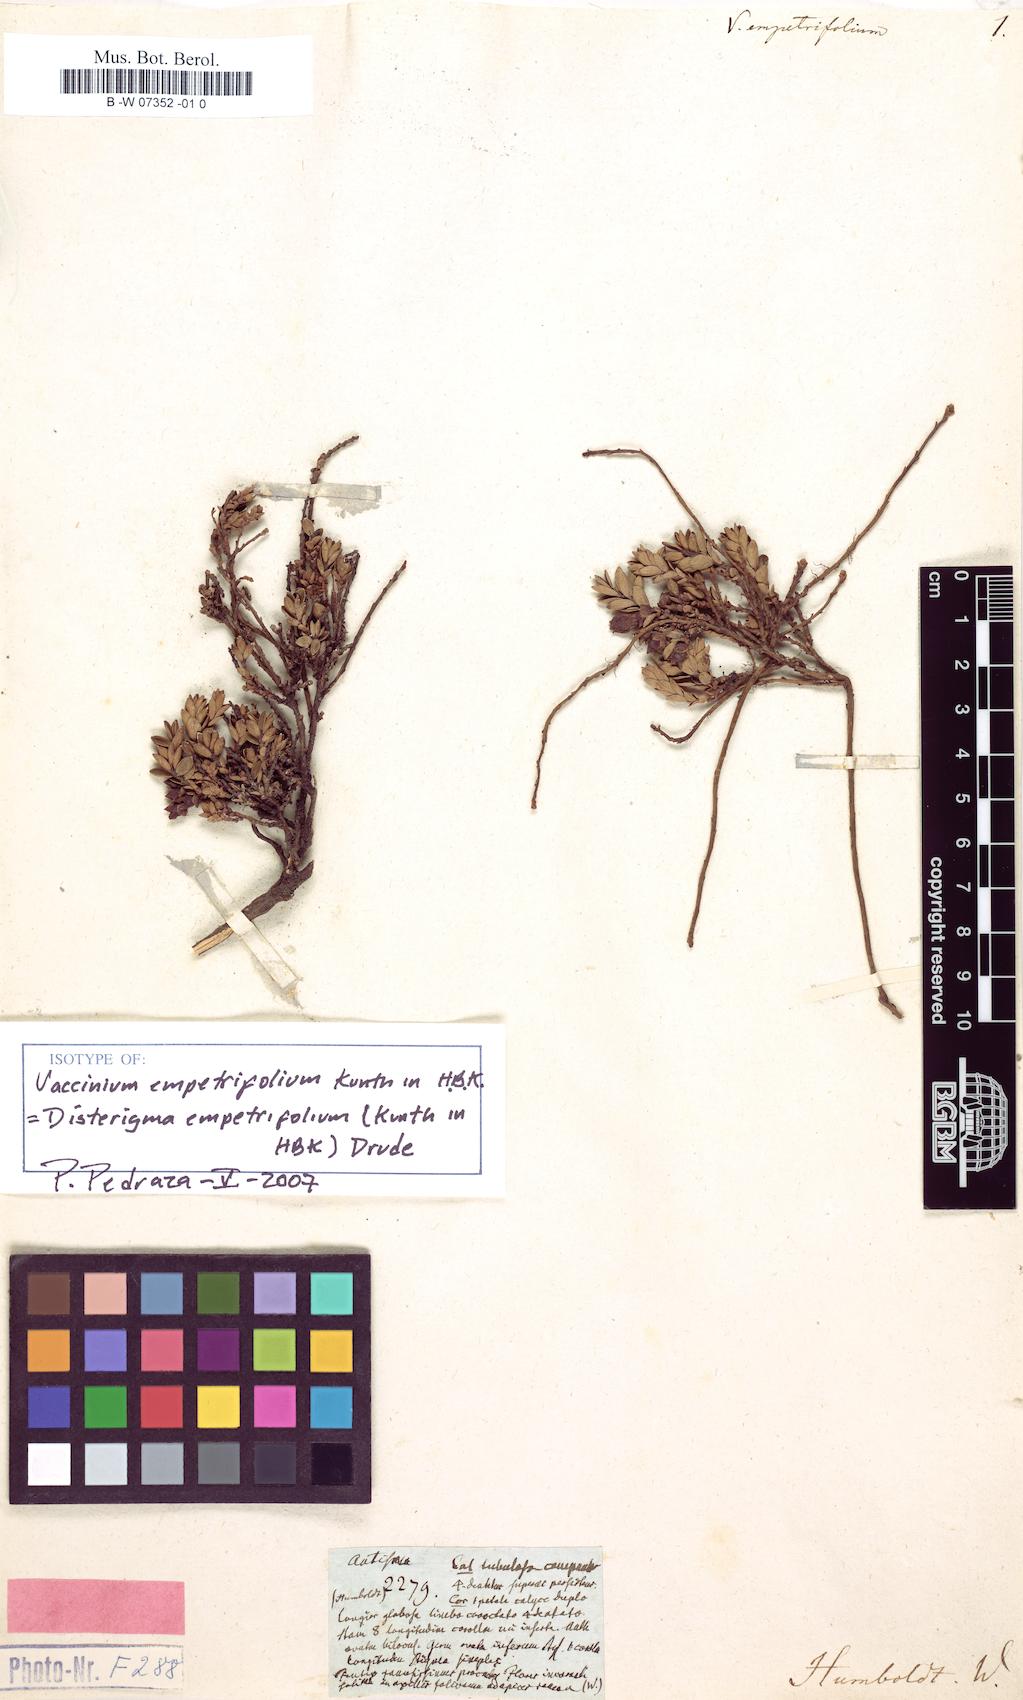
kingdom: Plantae
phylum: Tracheophyta
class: Magnoliopsida
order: Ericales
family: Ericaceae
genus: Disterigma
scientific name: Disterigma empetrifolium
